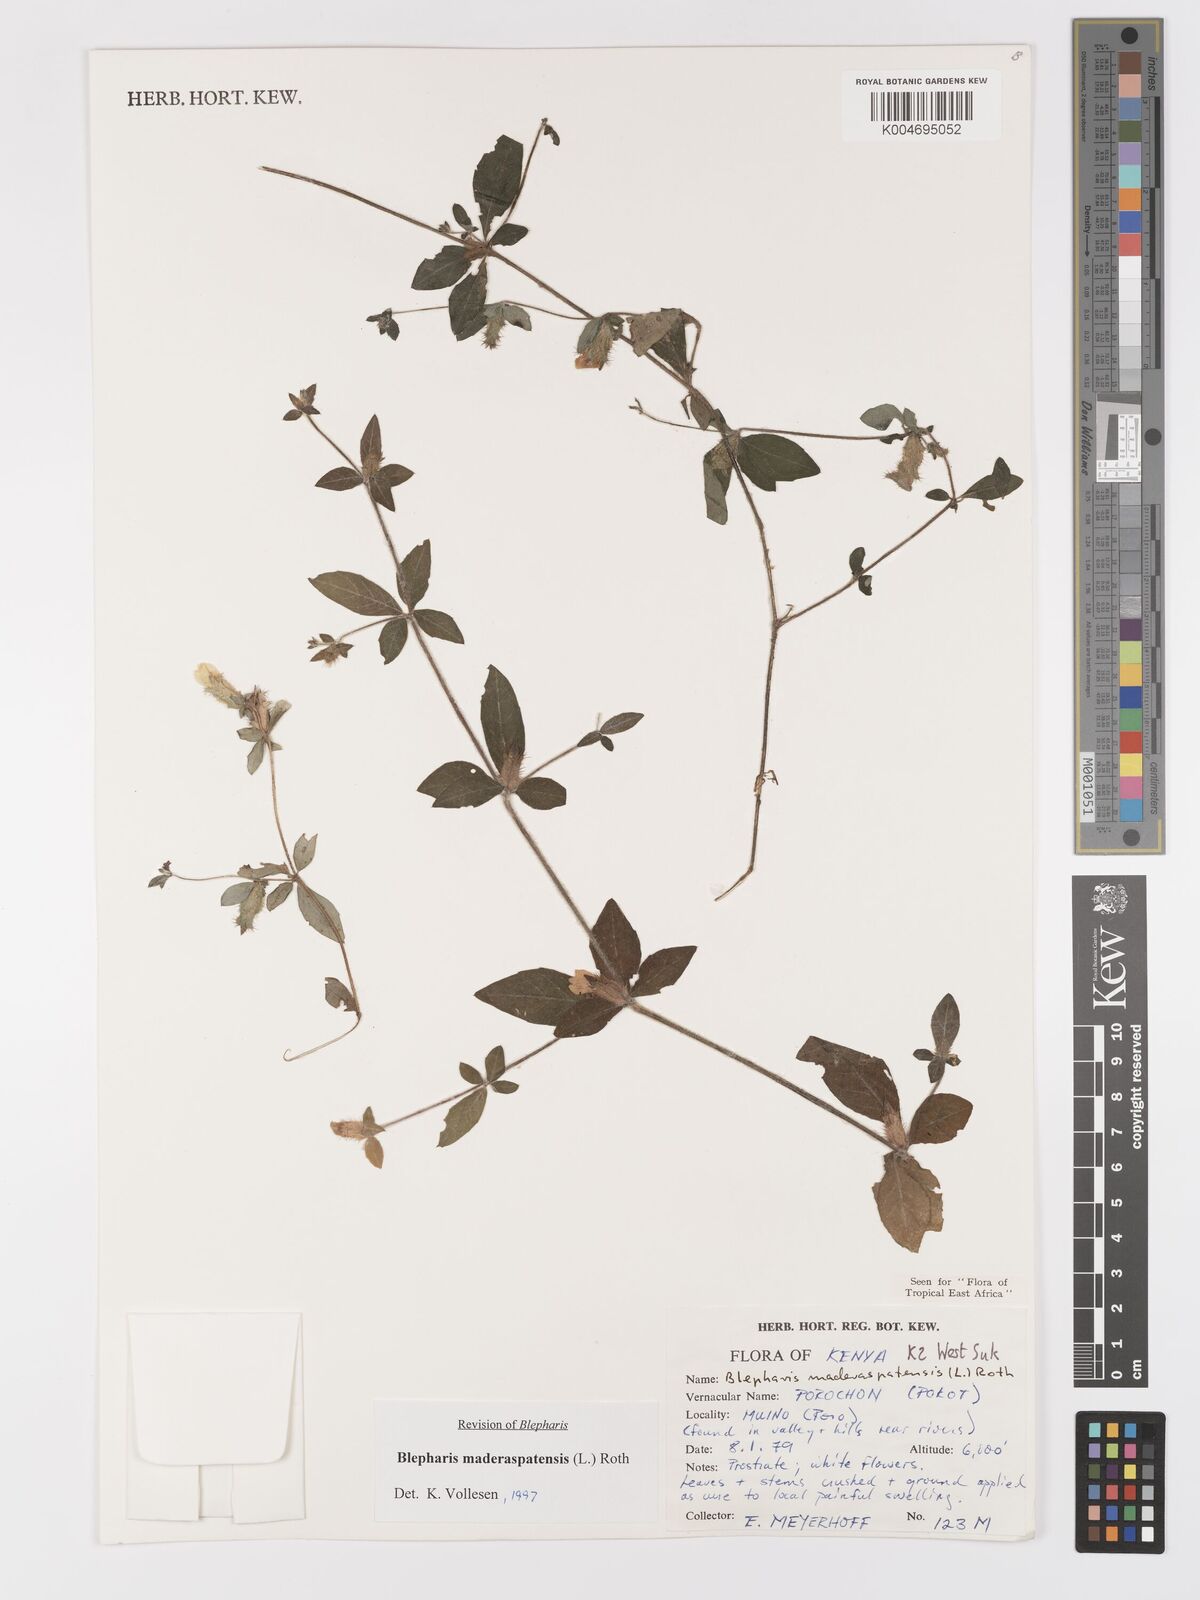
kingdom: Plantae
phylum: Tracheophyta
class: Magnoliopsida
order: Lamiales
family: Acanthaceae
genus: Blepharis
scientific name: Blepharis maderaspatensis
